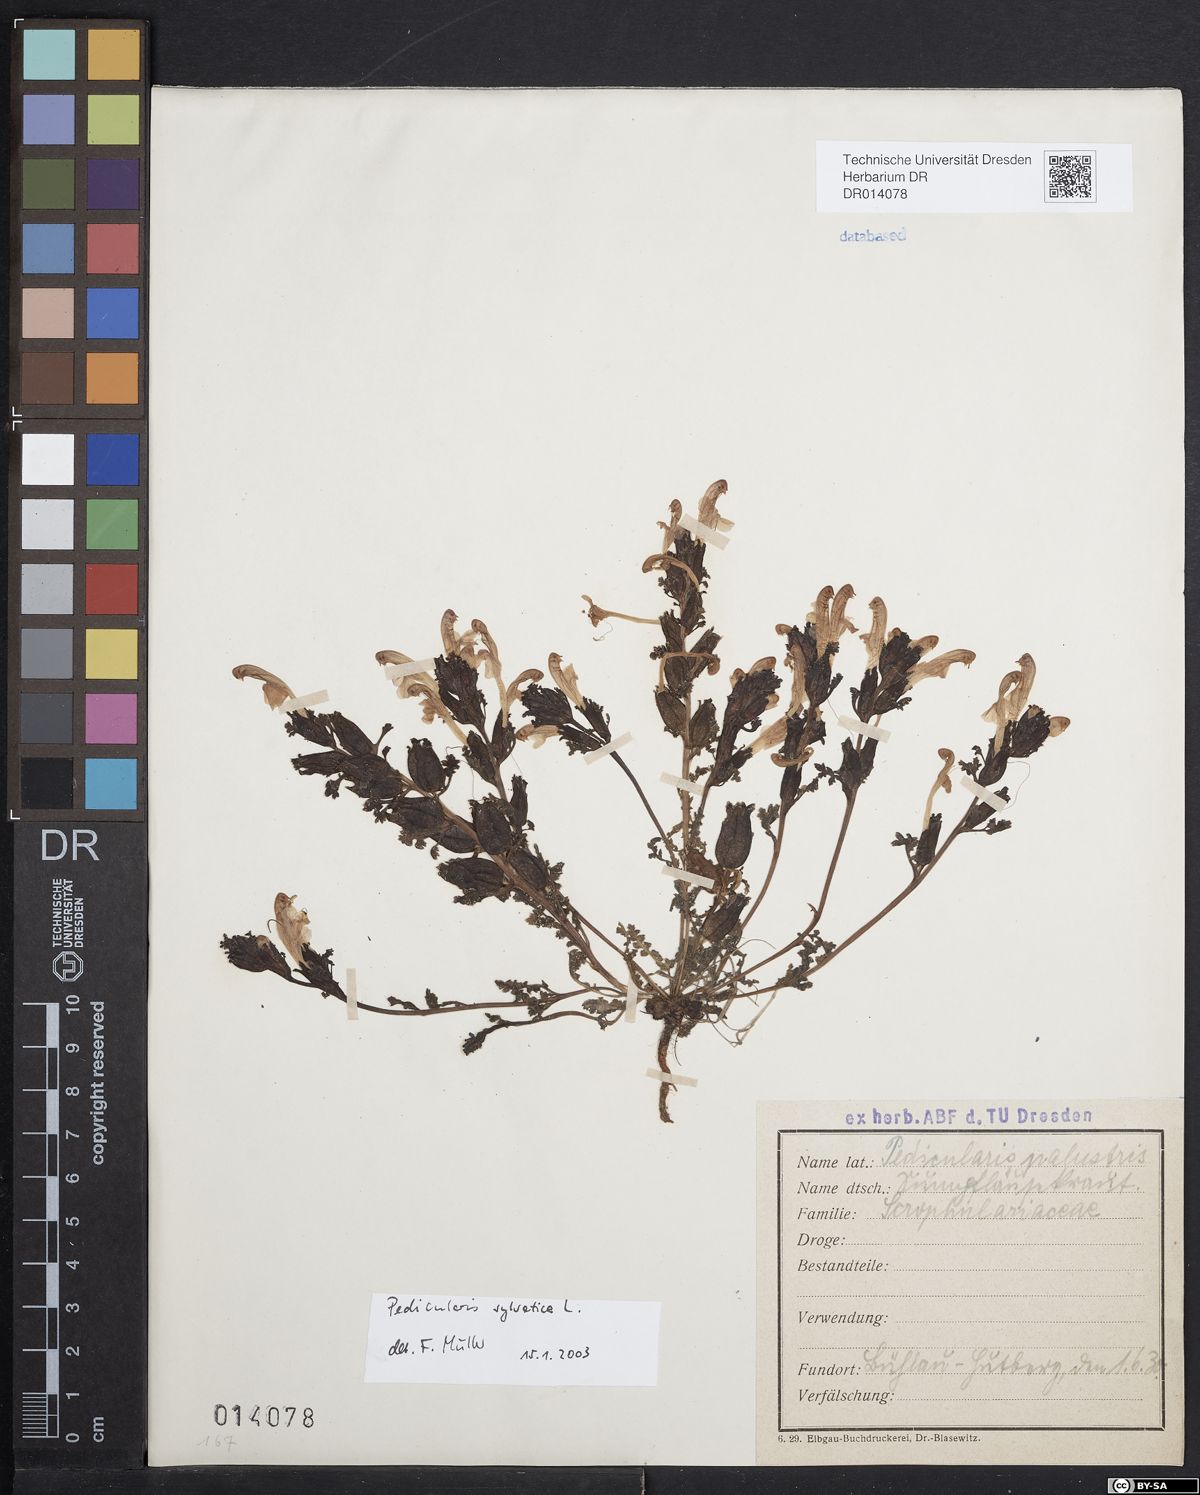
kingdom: Plantae
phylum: Tracheophyta
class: Magnoliopsida
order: Lamiales
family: Orobanchaceae
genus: Pedicularis
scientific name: Pedicularis sylvatica
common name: Lousewort
